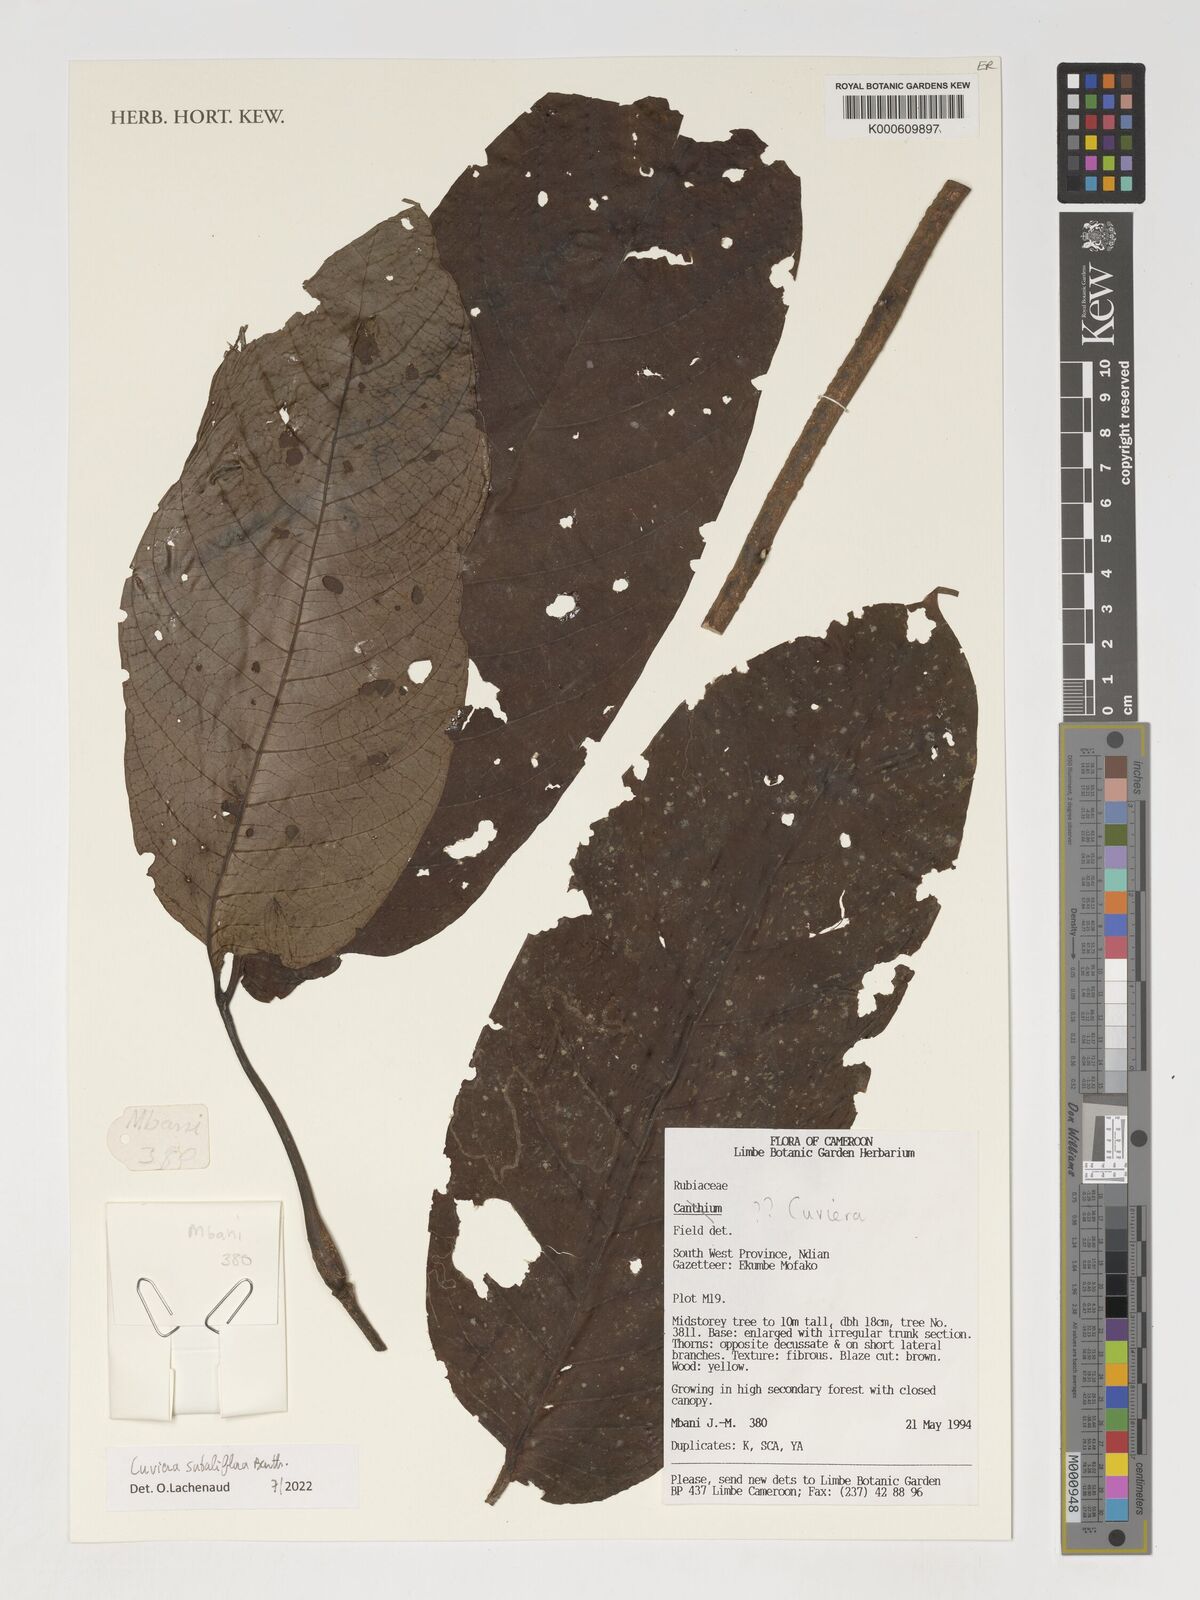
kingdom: Plantae
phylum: Tracheophyta
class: Magnoliopsida
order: Gentianales
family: Rubiaceae
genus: Cuviera
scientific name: Cuviera subuliflora
